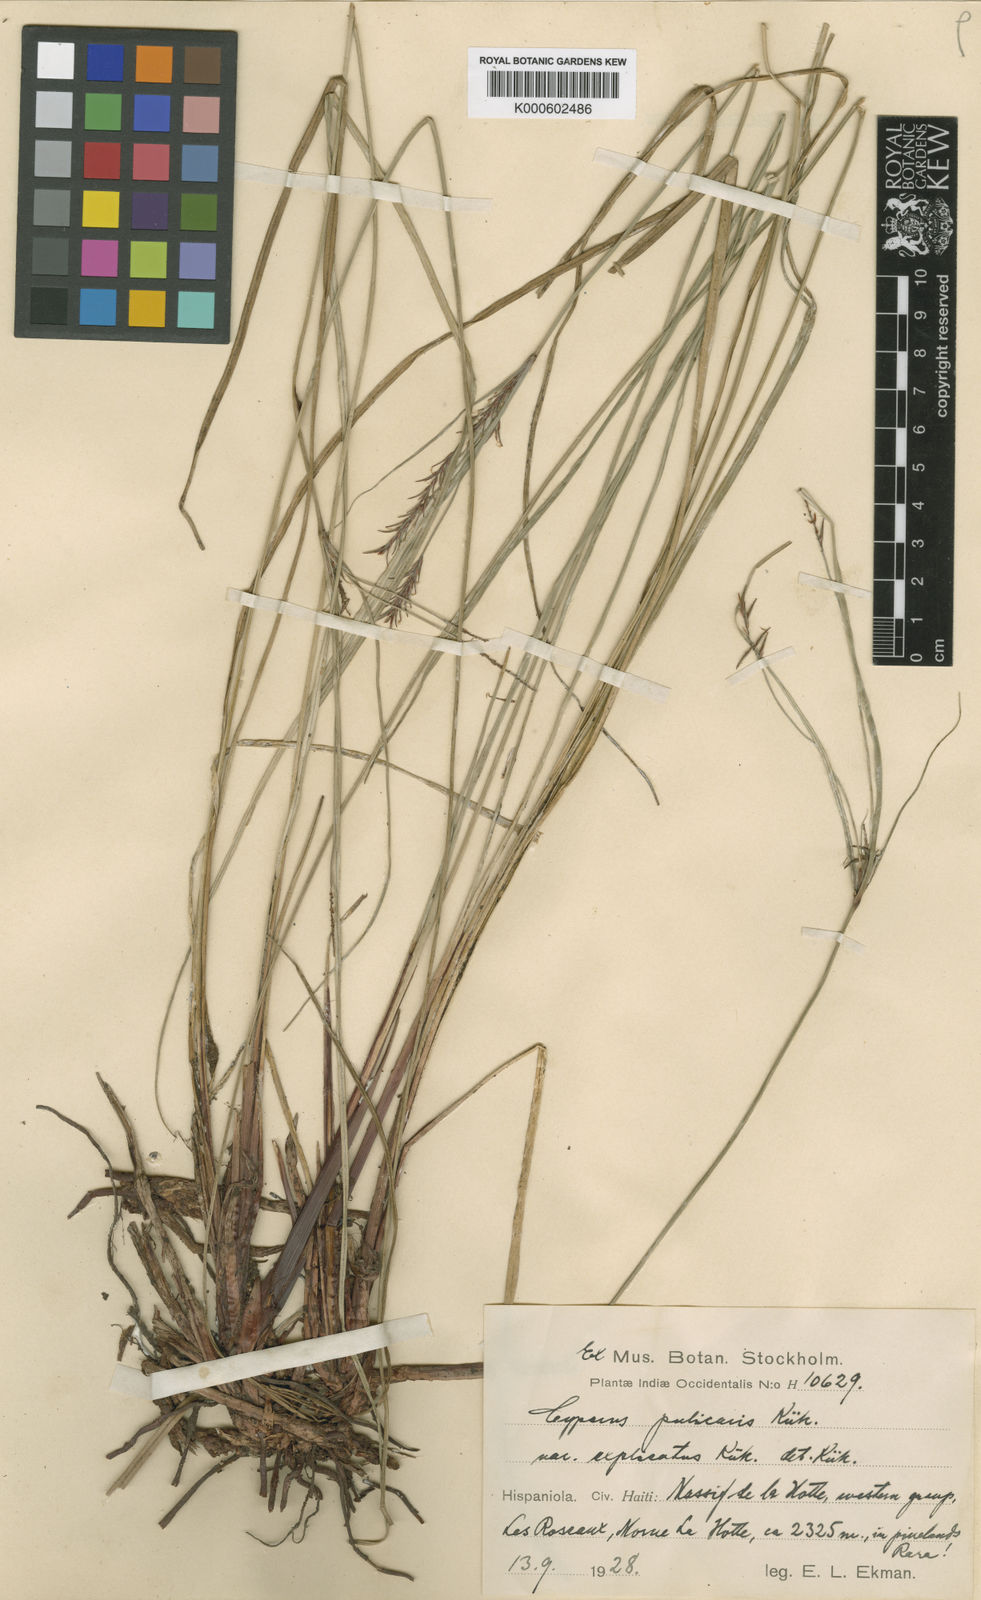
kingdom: Plantae
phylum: Tracheophyta
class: Liliopsida
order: Poales
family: Cyperaceae
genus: Cyperus
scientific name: Cyperus
